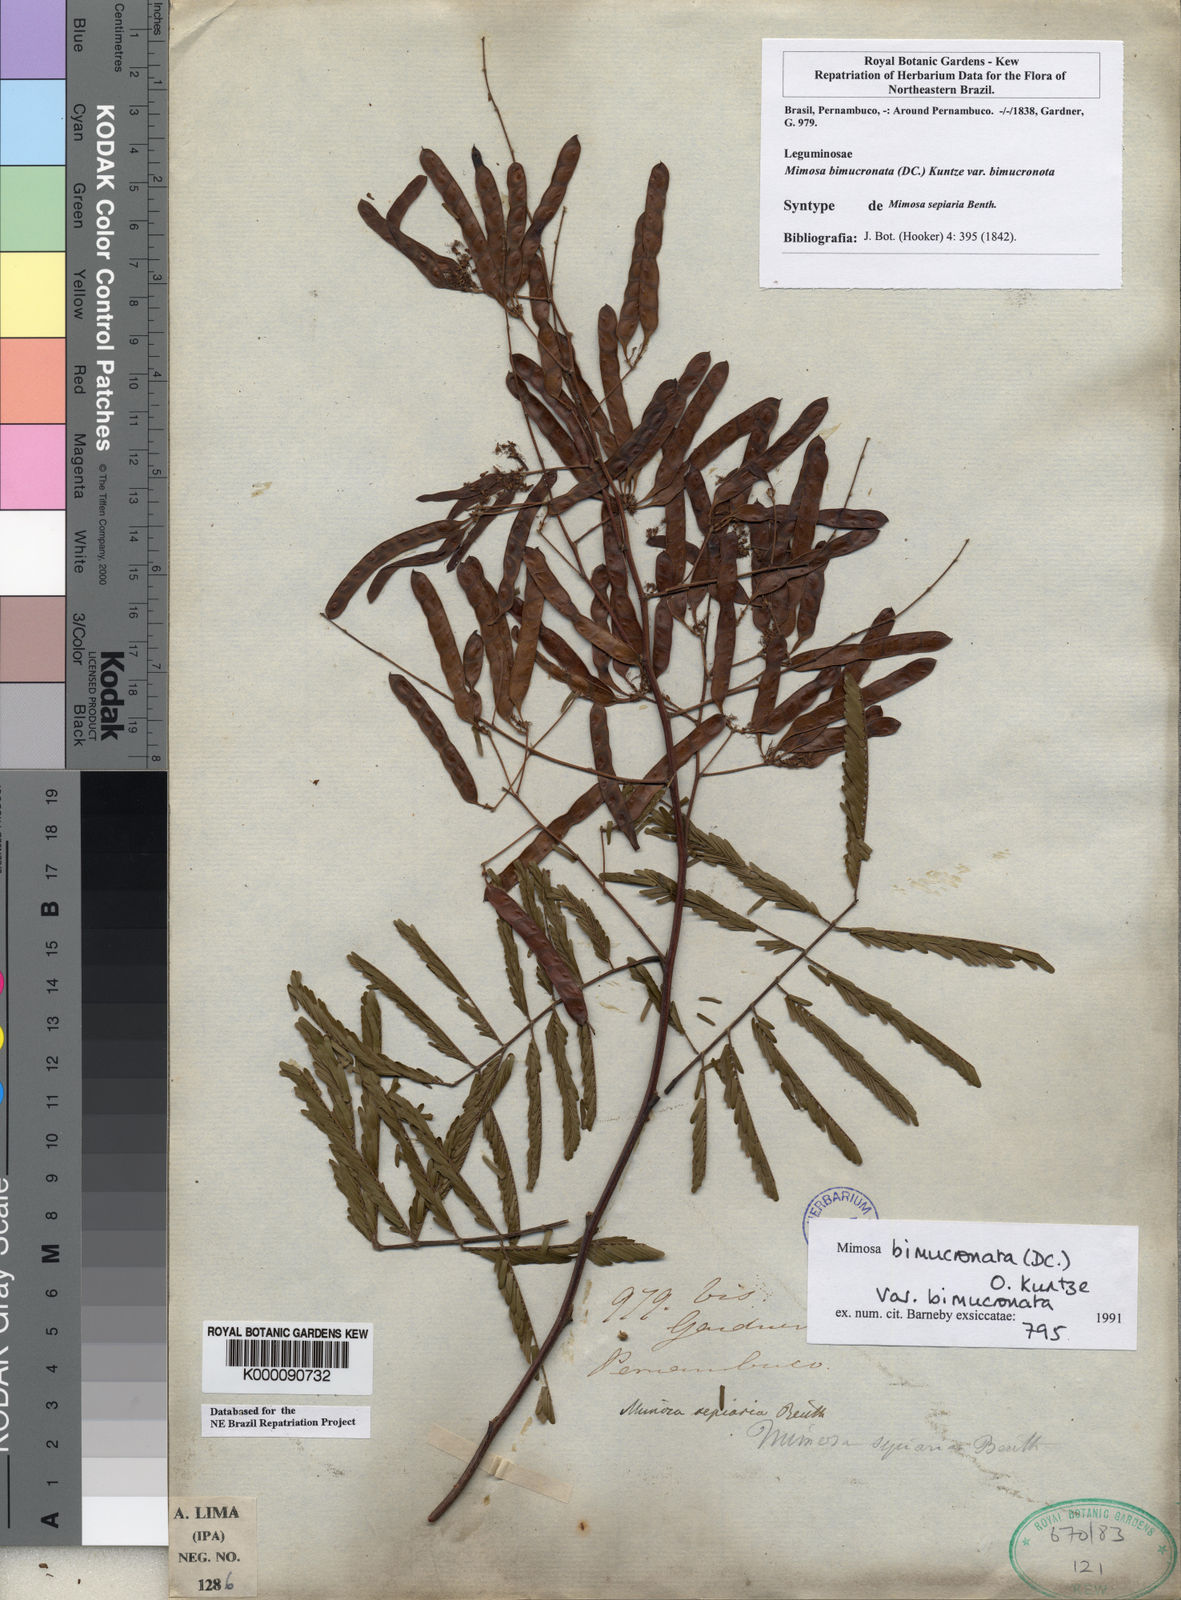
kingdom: Plantae
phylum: Tracheophyta
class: Magnoliopsida
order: Fabales
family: Fabaceae
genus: Mimosa
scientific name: Mimosa bimucronata
